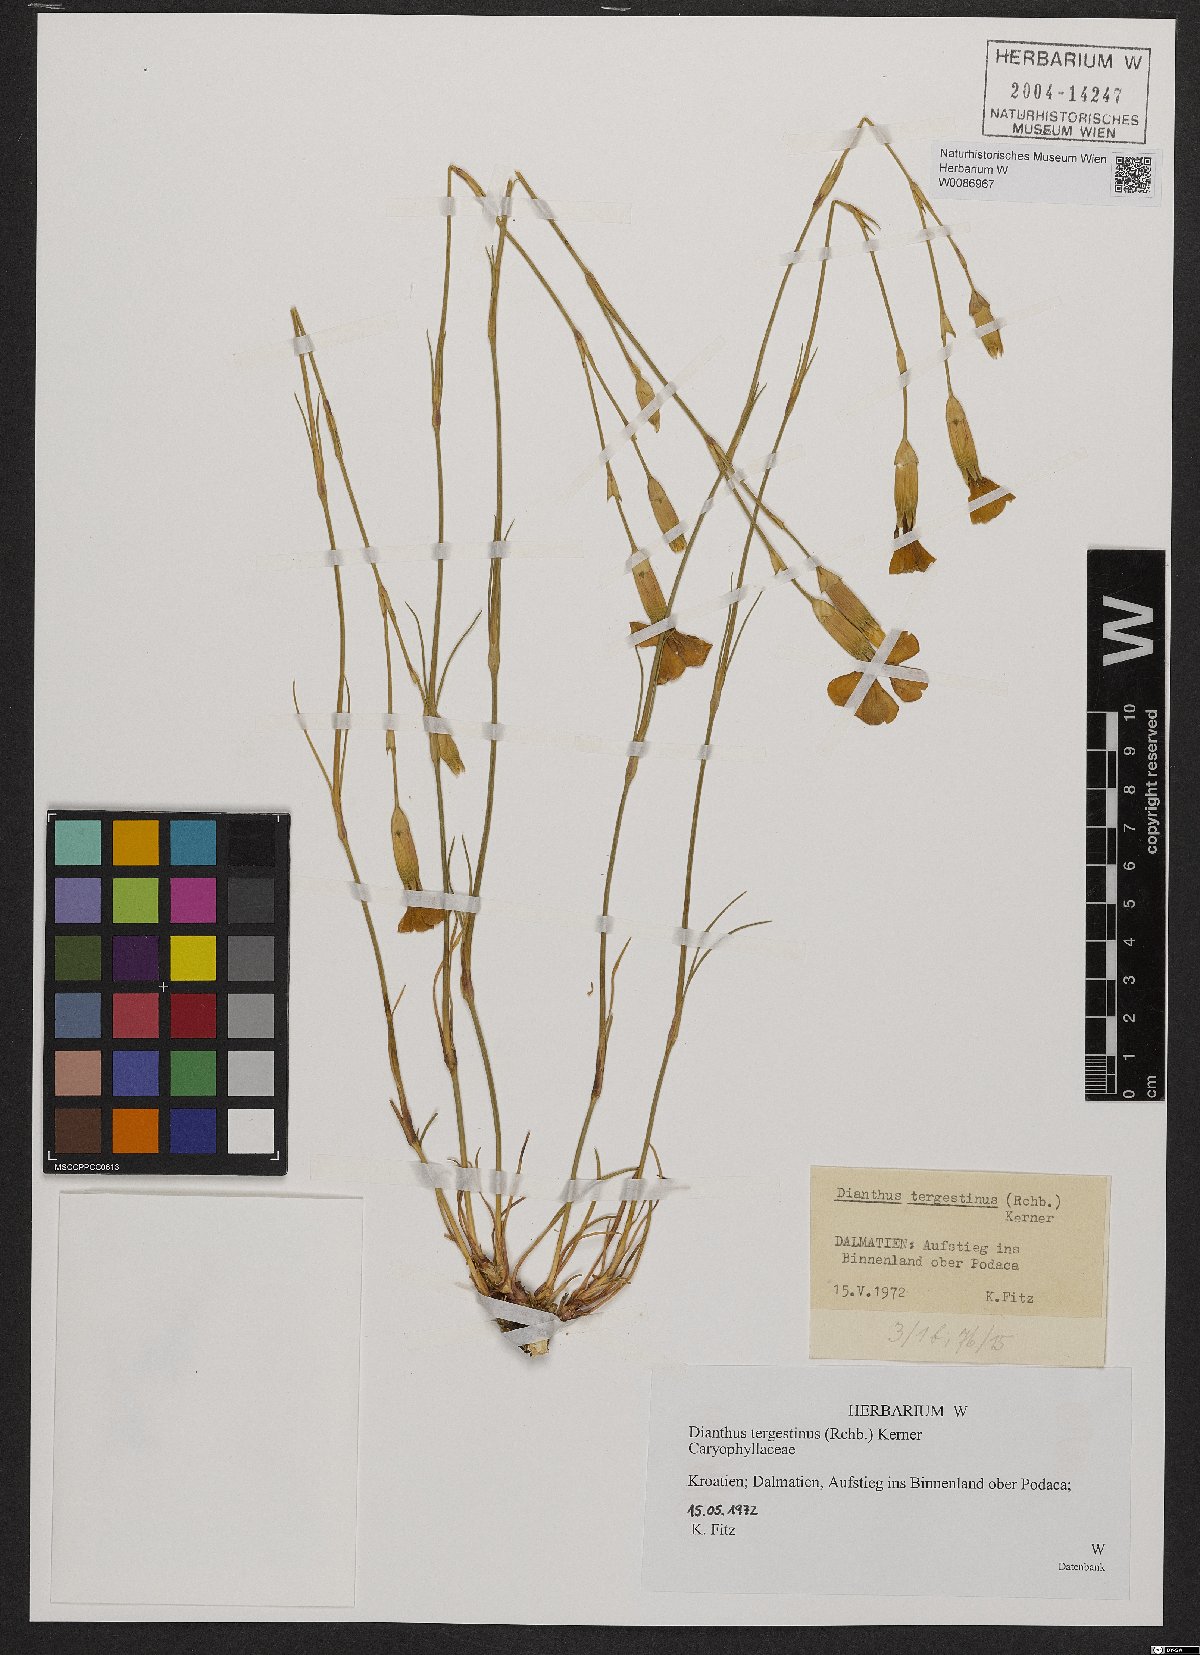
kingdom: Plantae
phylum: Tracheophyta
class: Magnoliopsida
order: Caryophyllales
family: Caryophyllaceae
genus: Dianthus
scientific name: Dianthus sylvestris
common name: Wood pink
